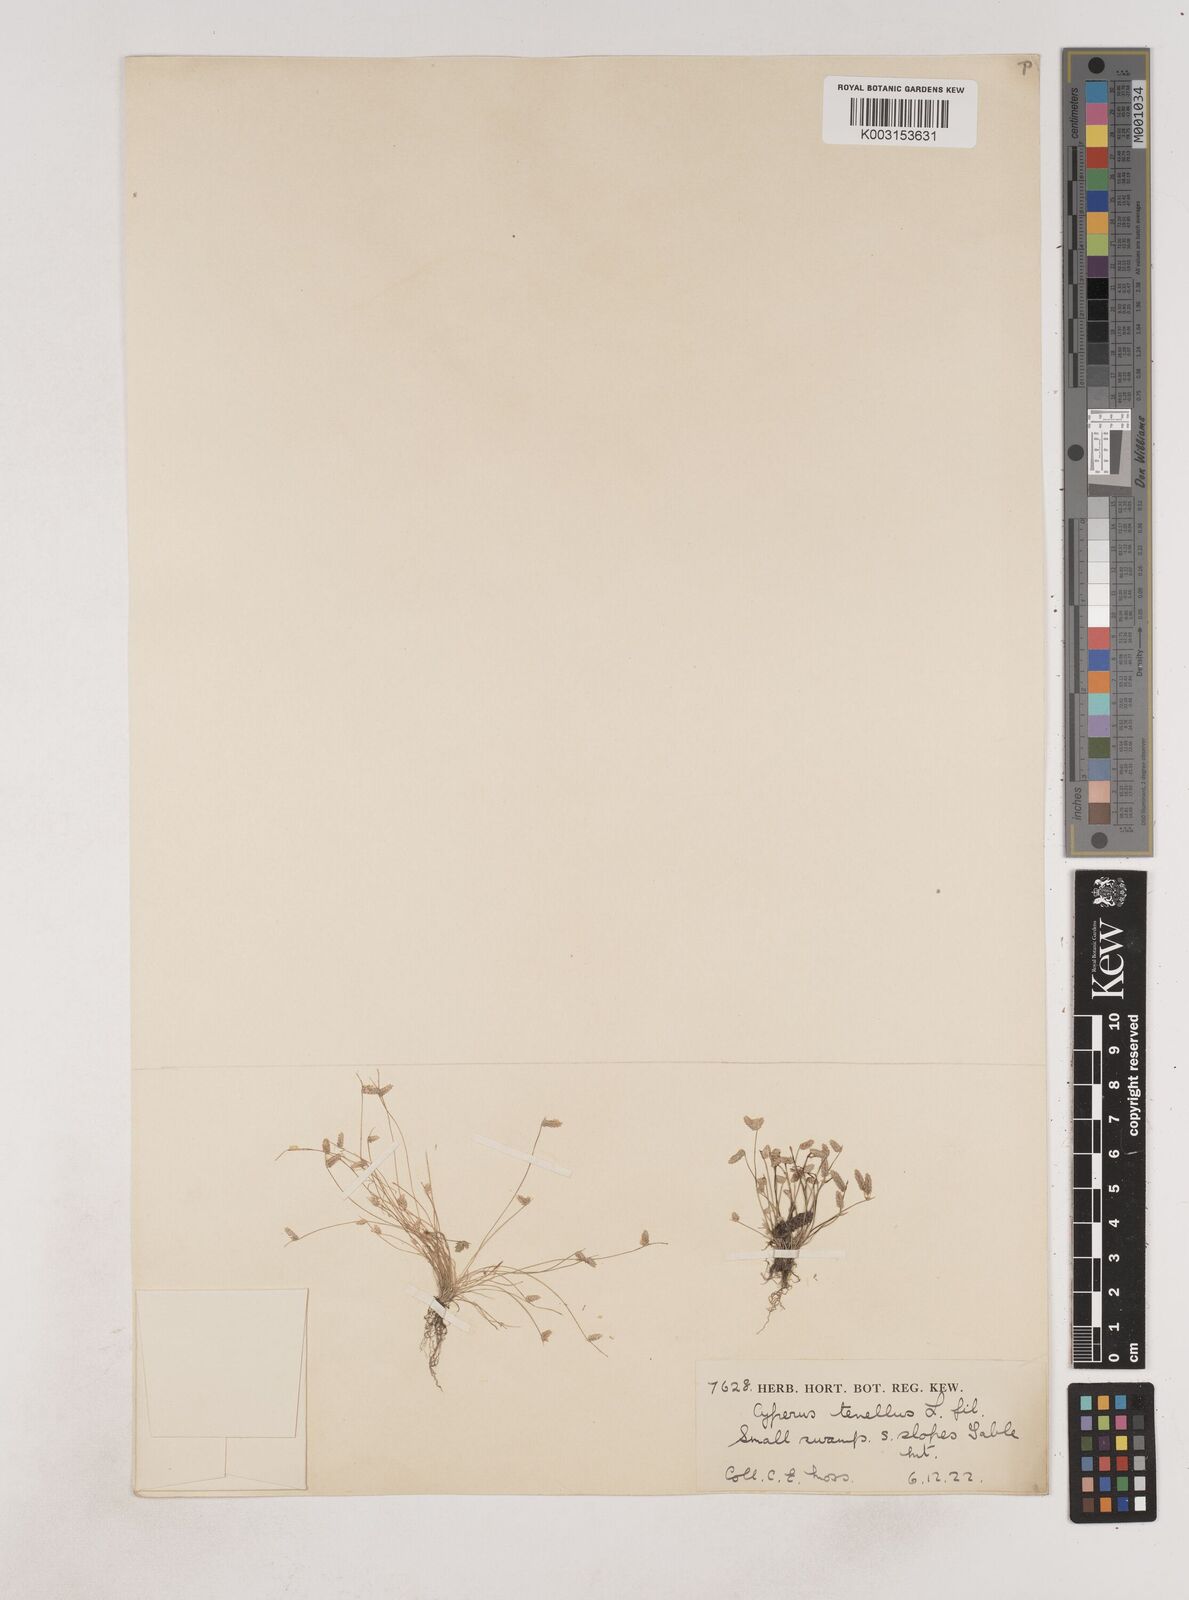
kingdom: Plantae
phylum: Tracheophyta
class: Liliopsida
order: Poales
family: Cyperaceae
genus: Isolepis
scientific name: Isolepis levynsiana
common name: Sedge
